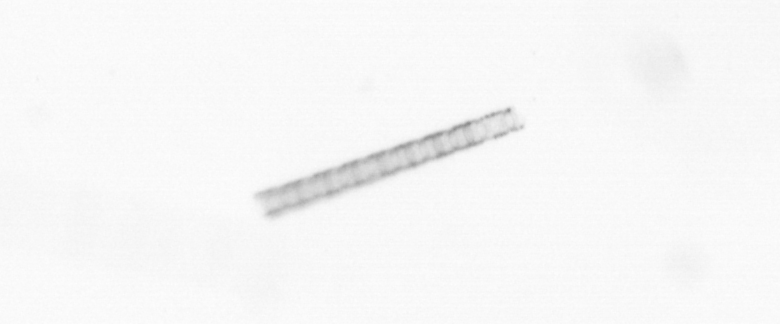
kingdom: Chromista
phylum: Ochrophyta
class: Bacillariophyceae
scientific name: Bacillariophyceae
